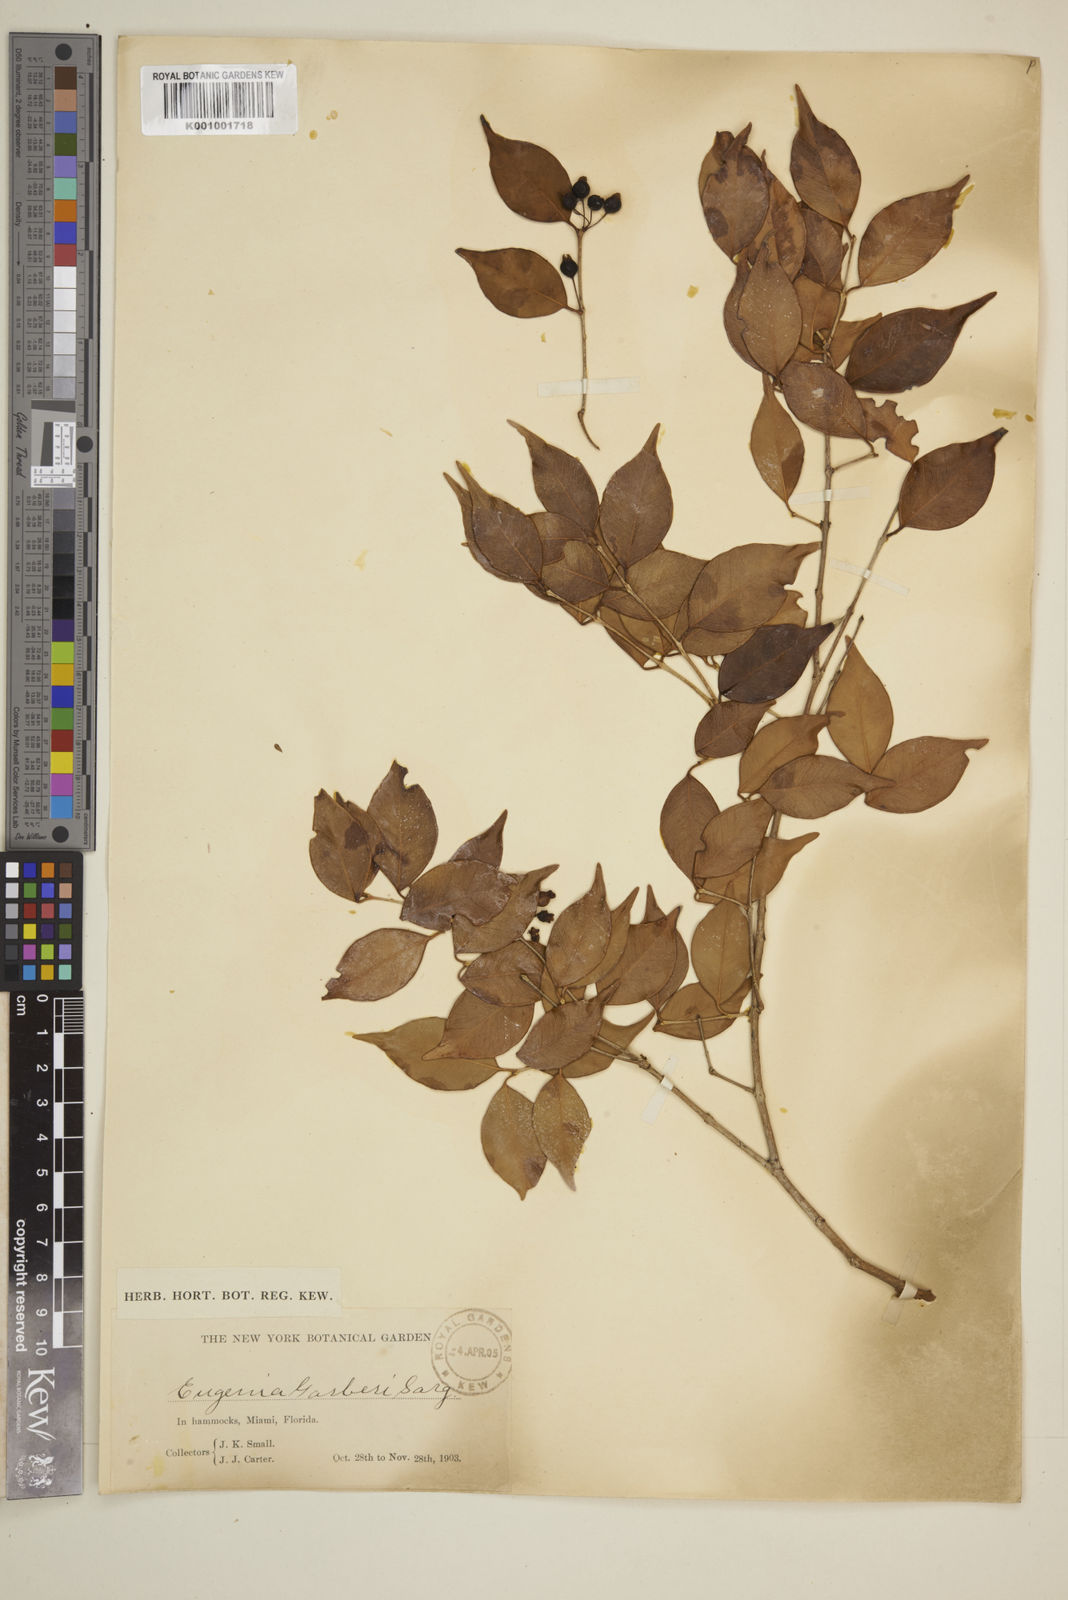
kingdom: Plantae
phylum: Tracheophyta
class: Magnoliopsida
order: Myrtales
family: Myrtaceae
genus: Eugenia
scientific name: Eugenia confusa
